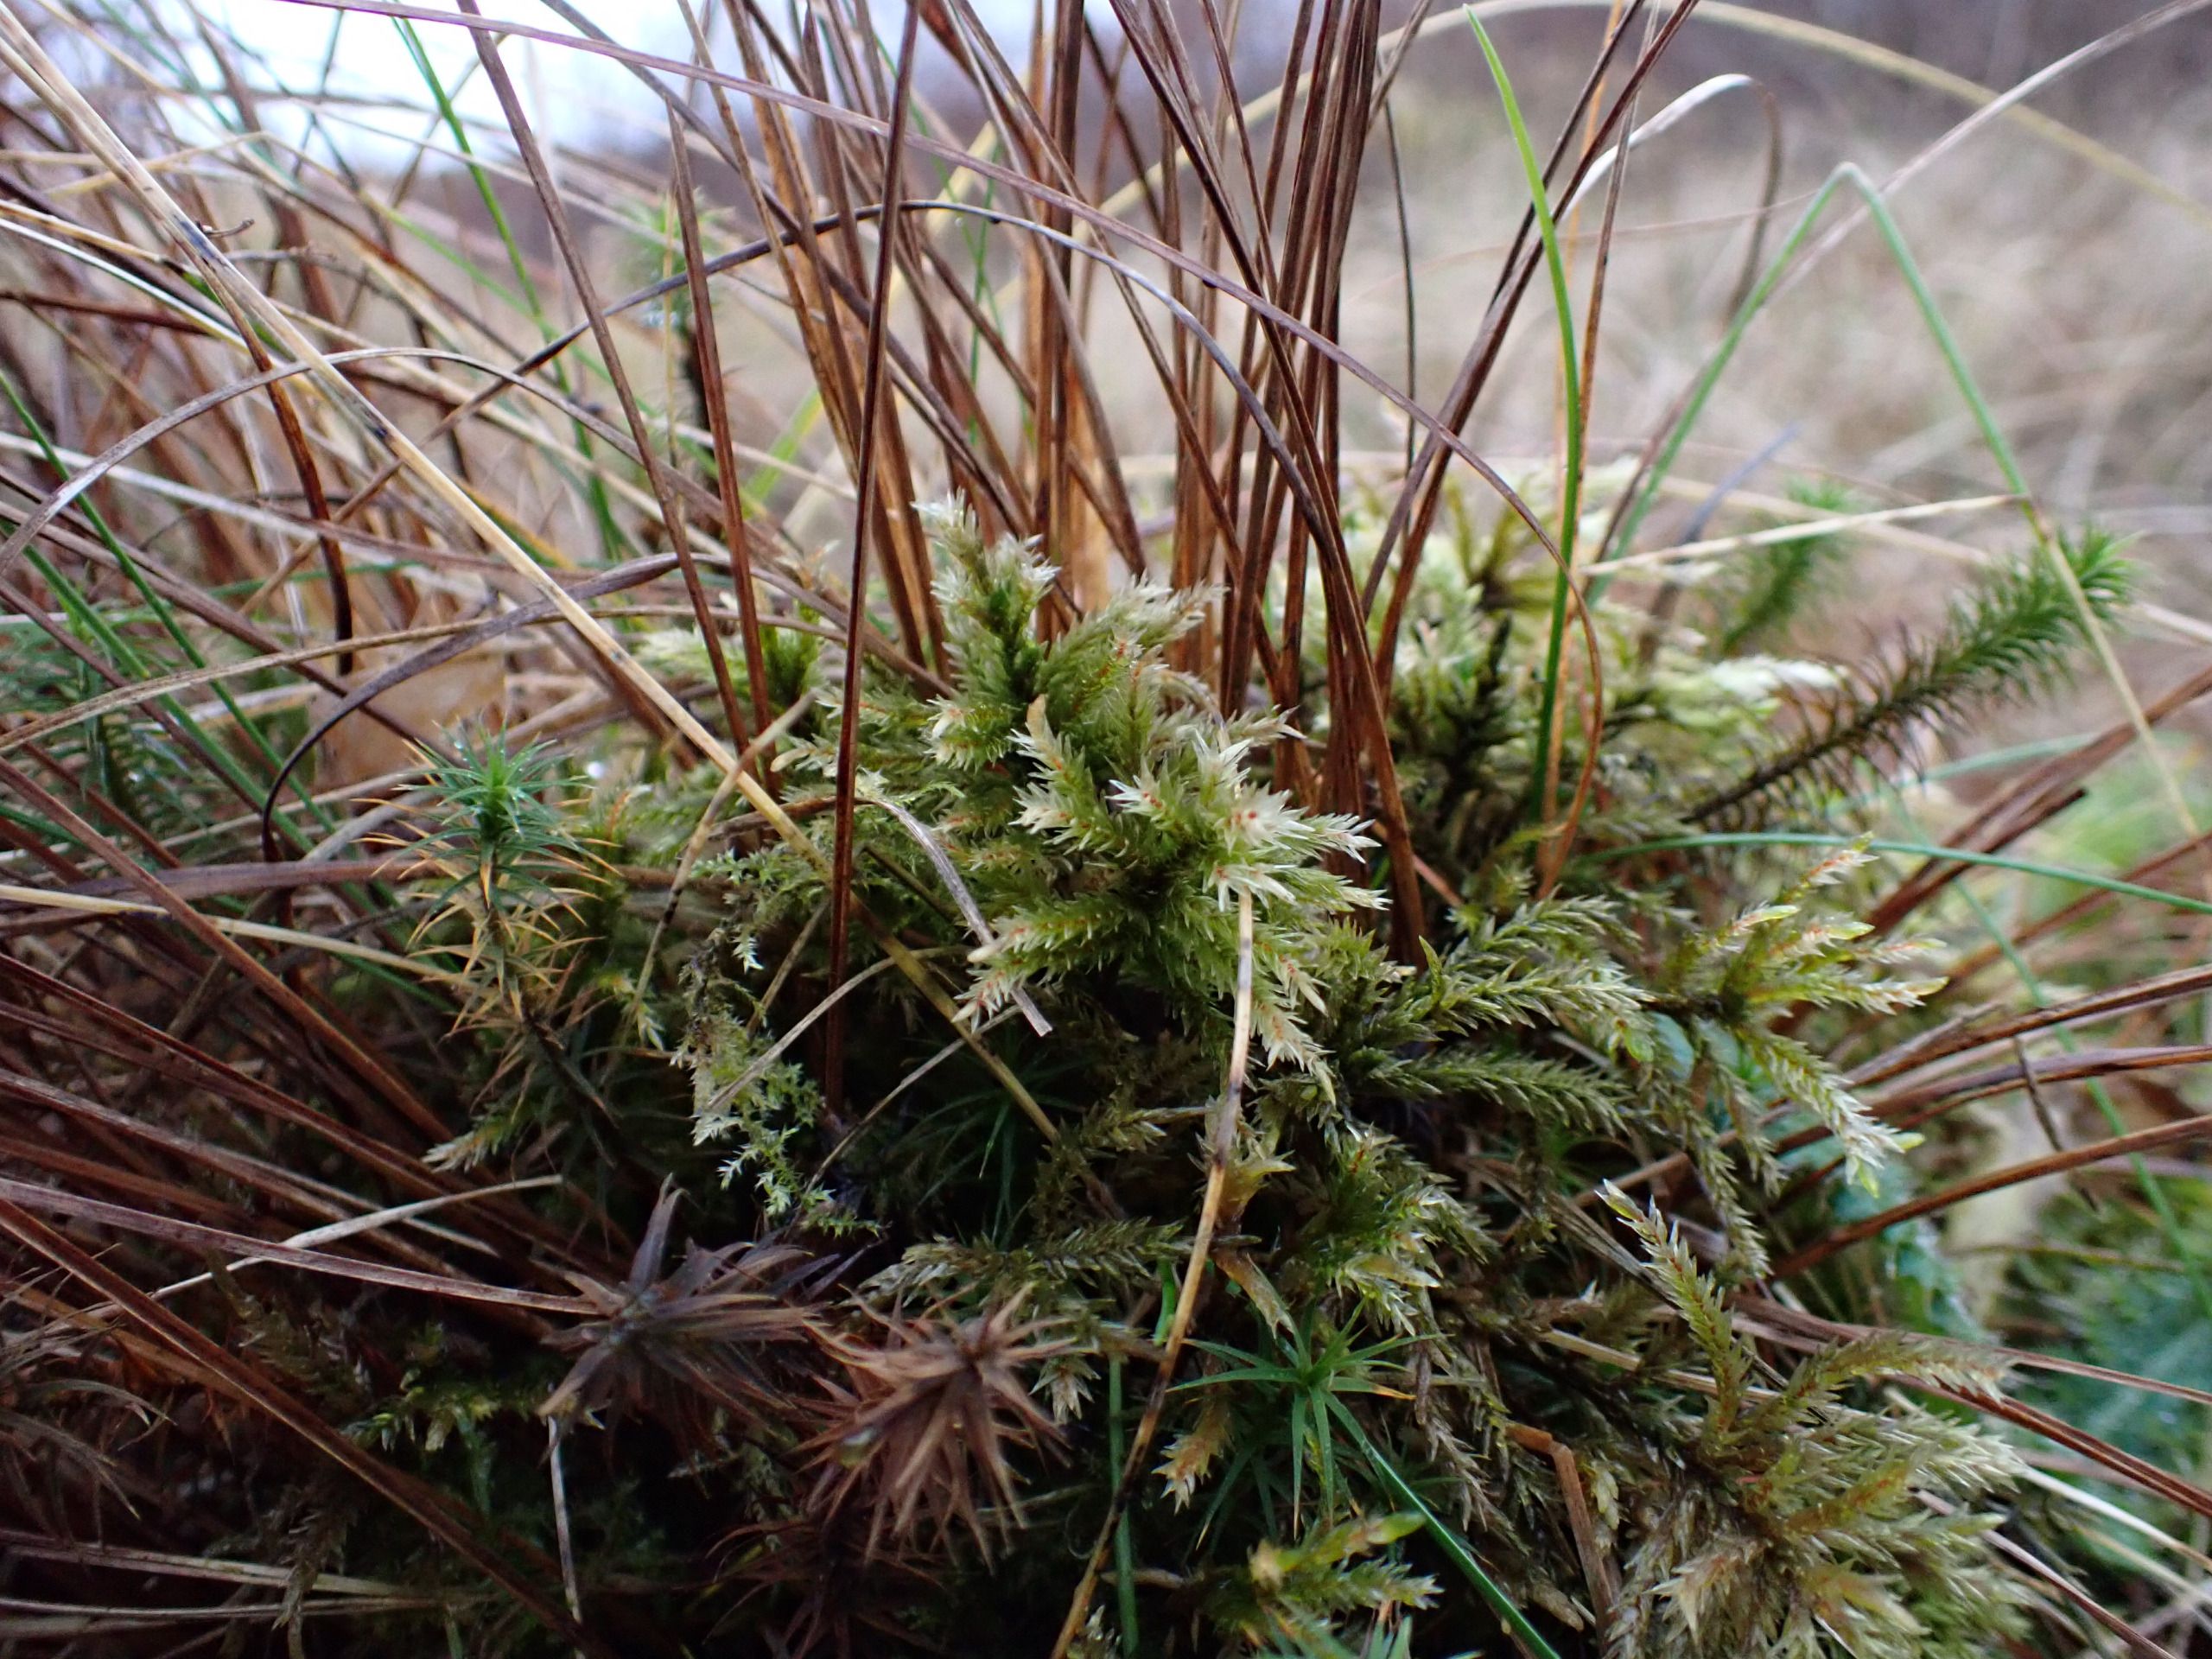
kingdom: Plantae
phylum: Bryophyta
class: Bryopsida
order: Hypnales
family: Climaciaceae
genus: Climacium
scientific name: Climacium dendroides
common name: Stor engkost
